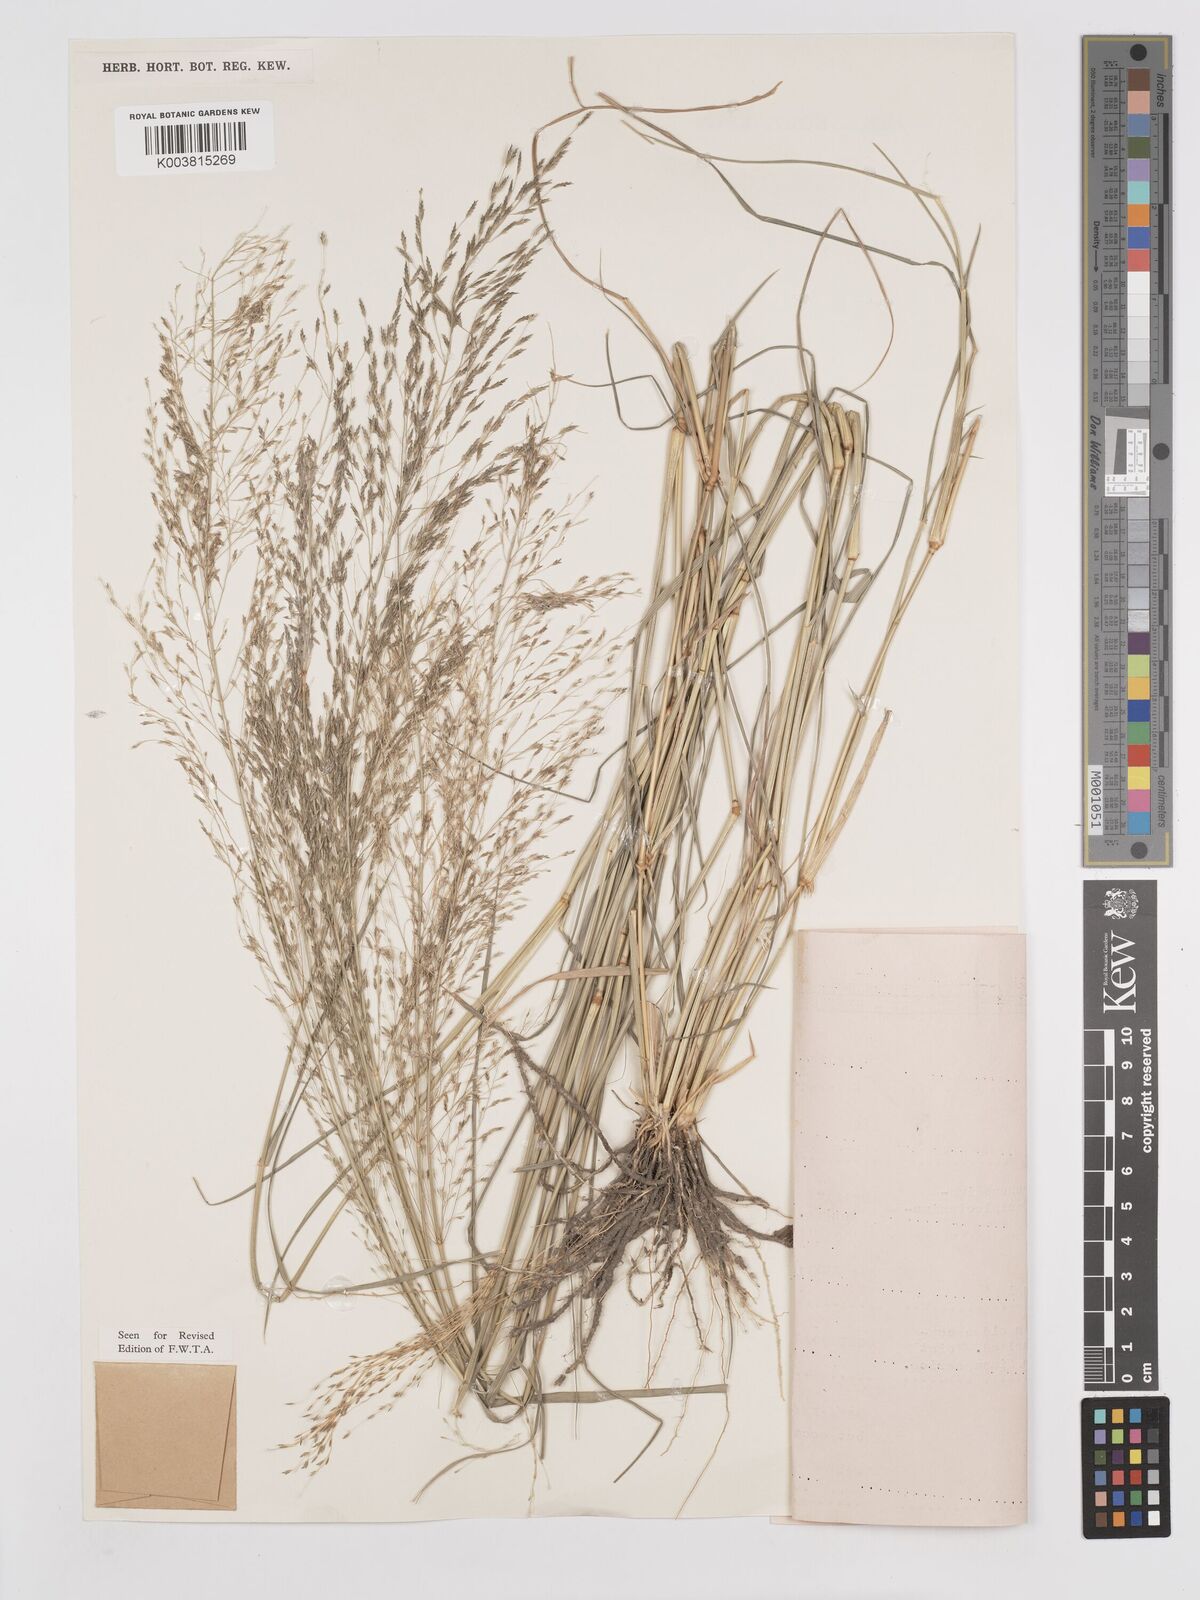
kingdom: Plantae
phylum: Tracheophyta
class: Liliopsida
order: Poales
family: Poaceae
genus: Eragrostis
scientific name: Eragrostis cylindriflora
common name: Cylinderflower lovegrass
